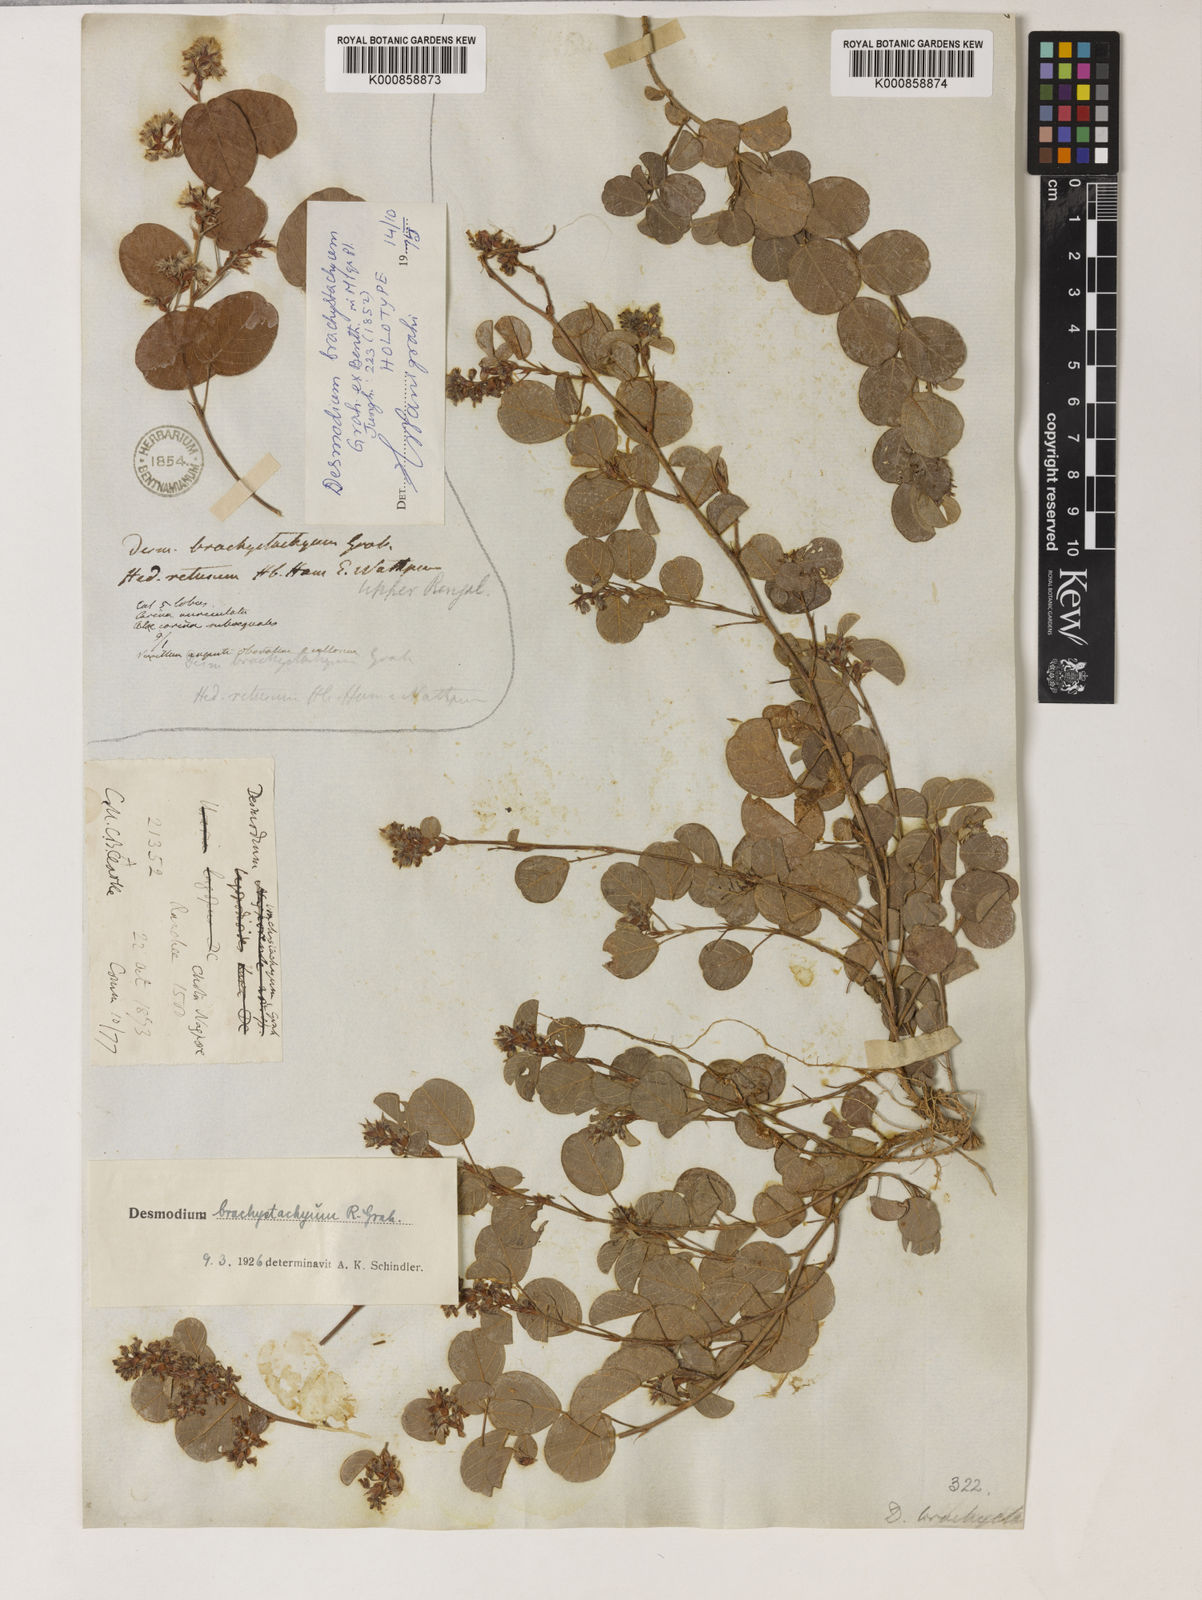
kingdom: Plantae
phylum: Tracheophyta
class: Magnoliopsida
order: Fabales
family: Fabaceae
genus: Desmodium
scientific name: Desmodium
